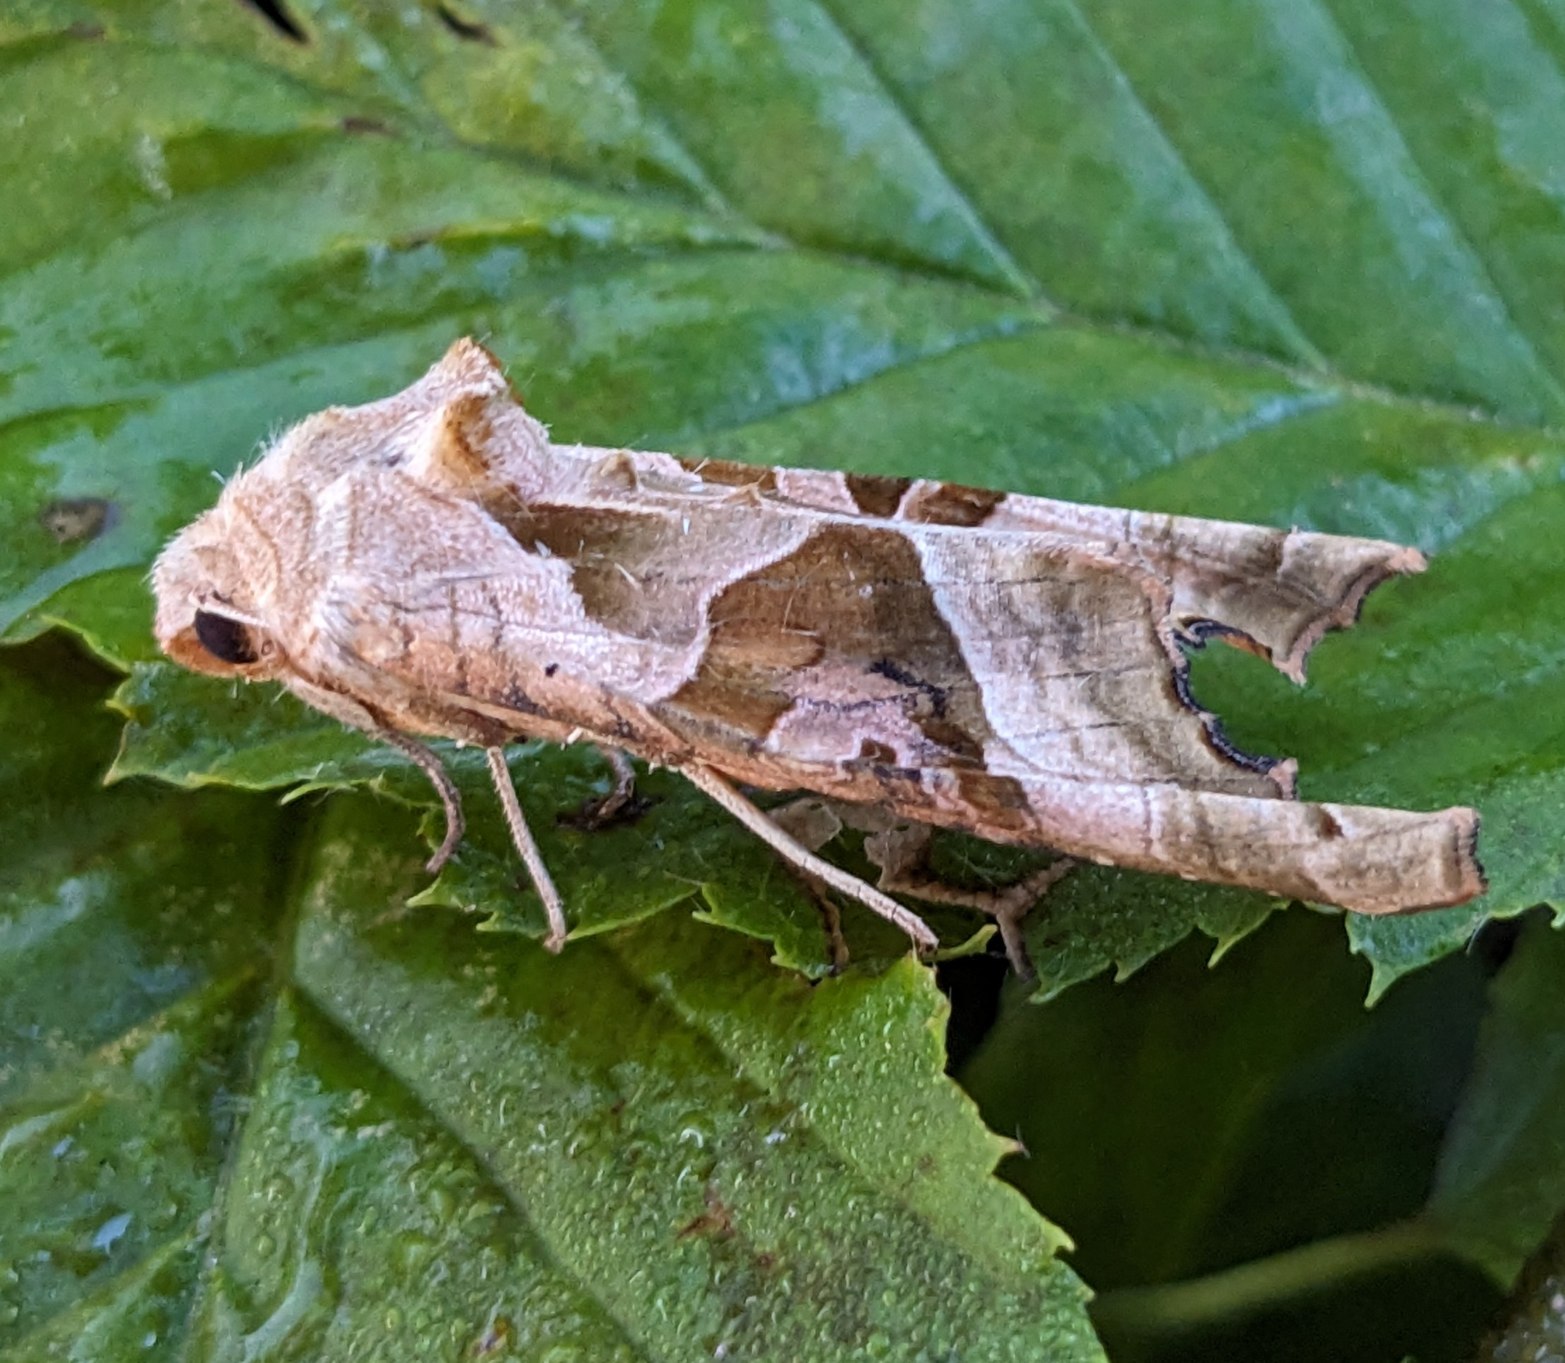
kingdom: Animalia
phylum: Arthropoda
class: Insecta
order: Lepidoptera
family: Noctuidae
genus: Phlogophora
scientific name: Phlogophora meticulosa
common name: Agatugle
